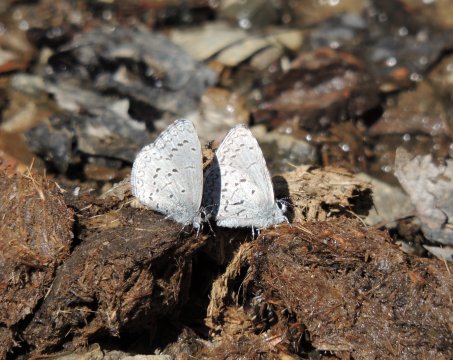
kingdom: Animalia
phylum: Arthropoda
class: Insecta
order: Lepidoptera
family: Lycaenidae
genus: Celastrina
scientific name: Celastrina ladon
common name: Echo Azure
